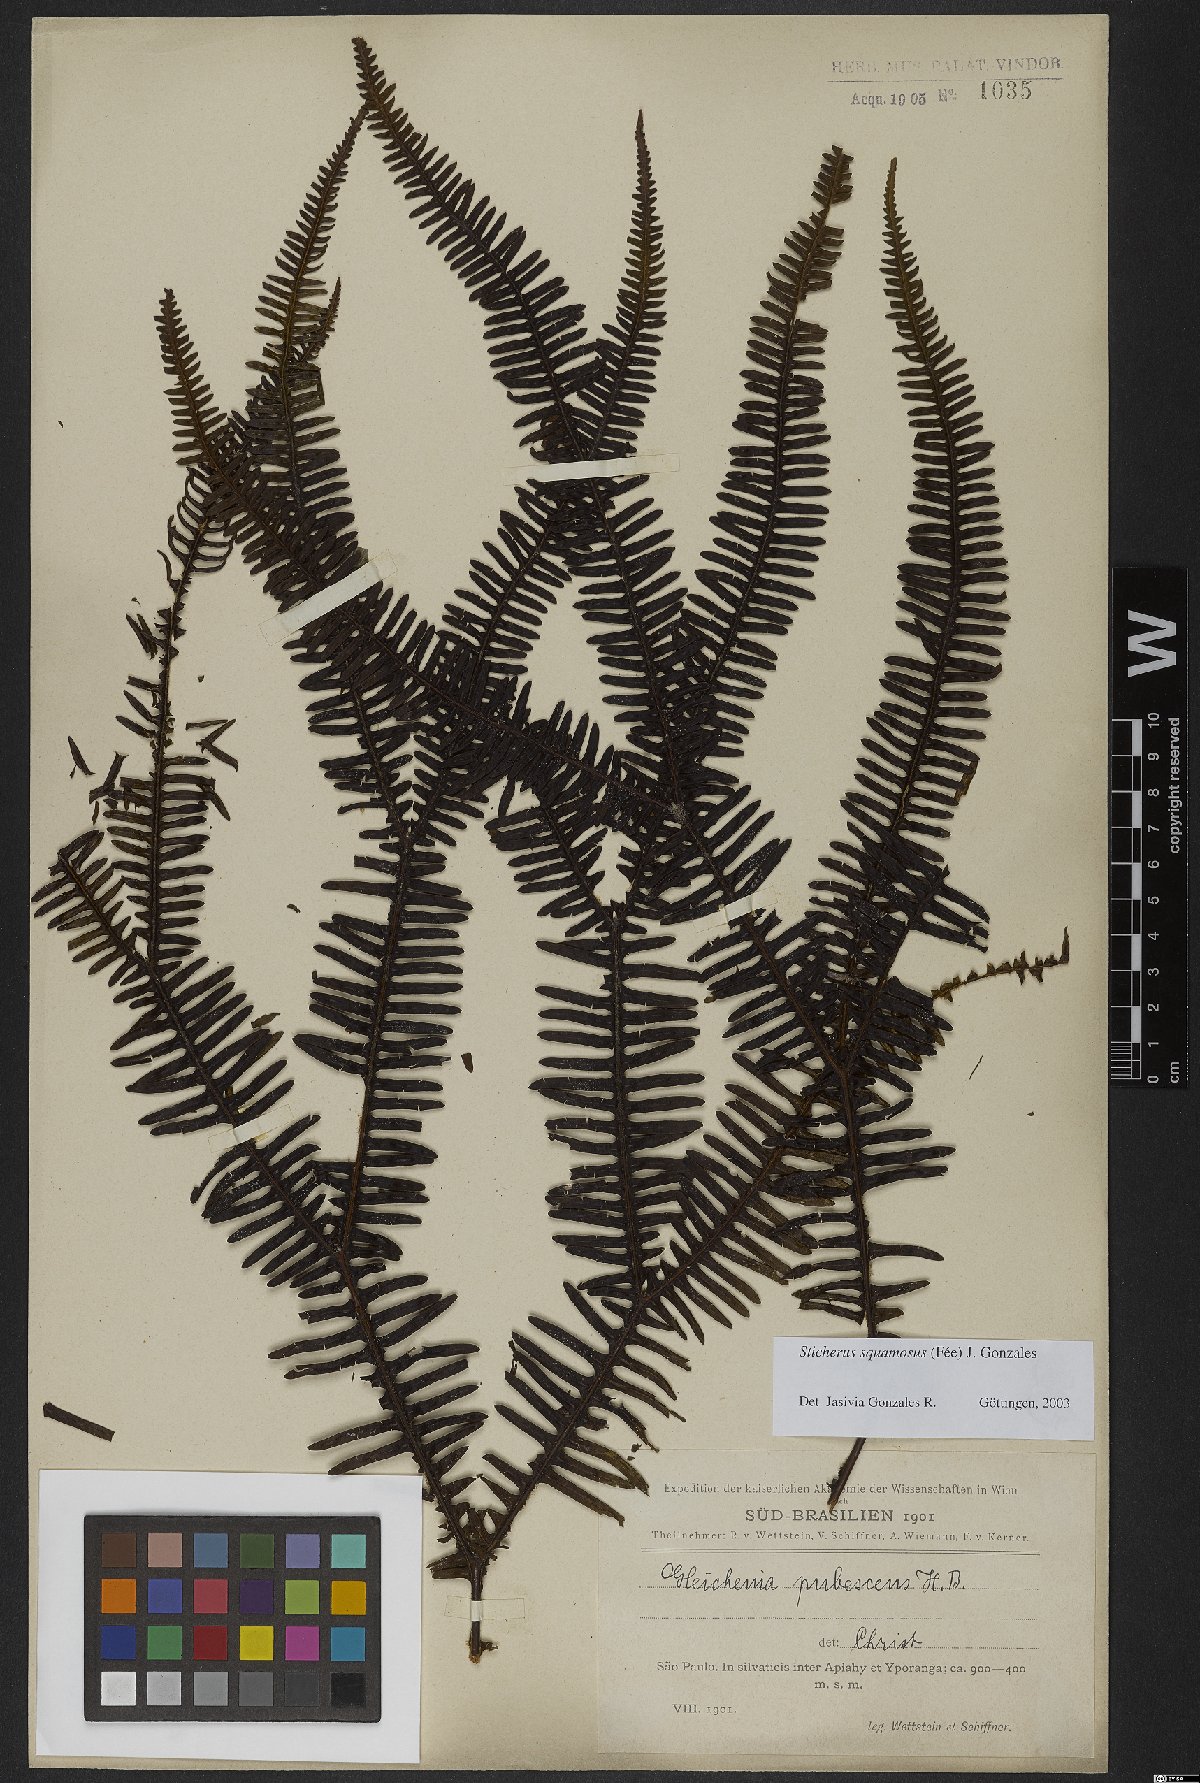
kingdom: Plantae
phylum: Tracheophyta
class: Polypodiopsida
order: Gleicheniales
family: Gleicheniaceae
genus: Sticherus
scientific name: Sticherus squamosus
